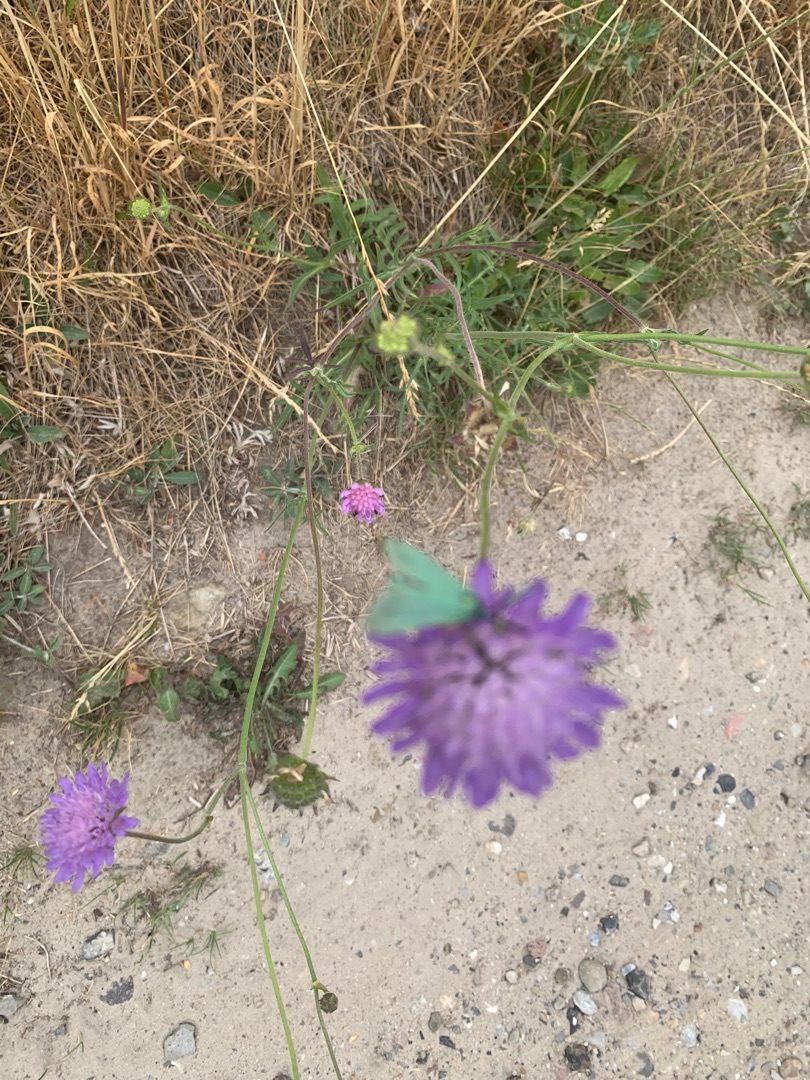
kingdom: Plantae
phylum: Tracheophyta
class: Magnoliopsida
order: Dipsacales
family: Caprifoliaceae
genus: Knautia
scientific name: Knautia arvensis
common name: Blåhat
